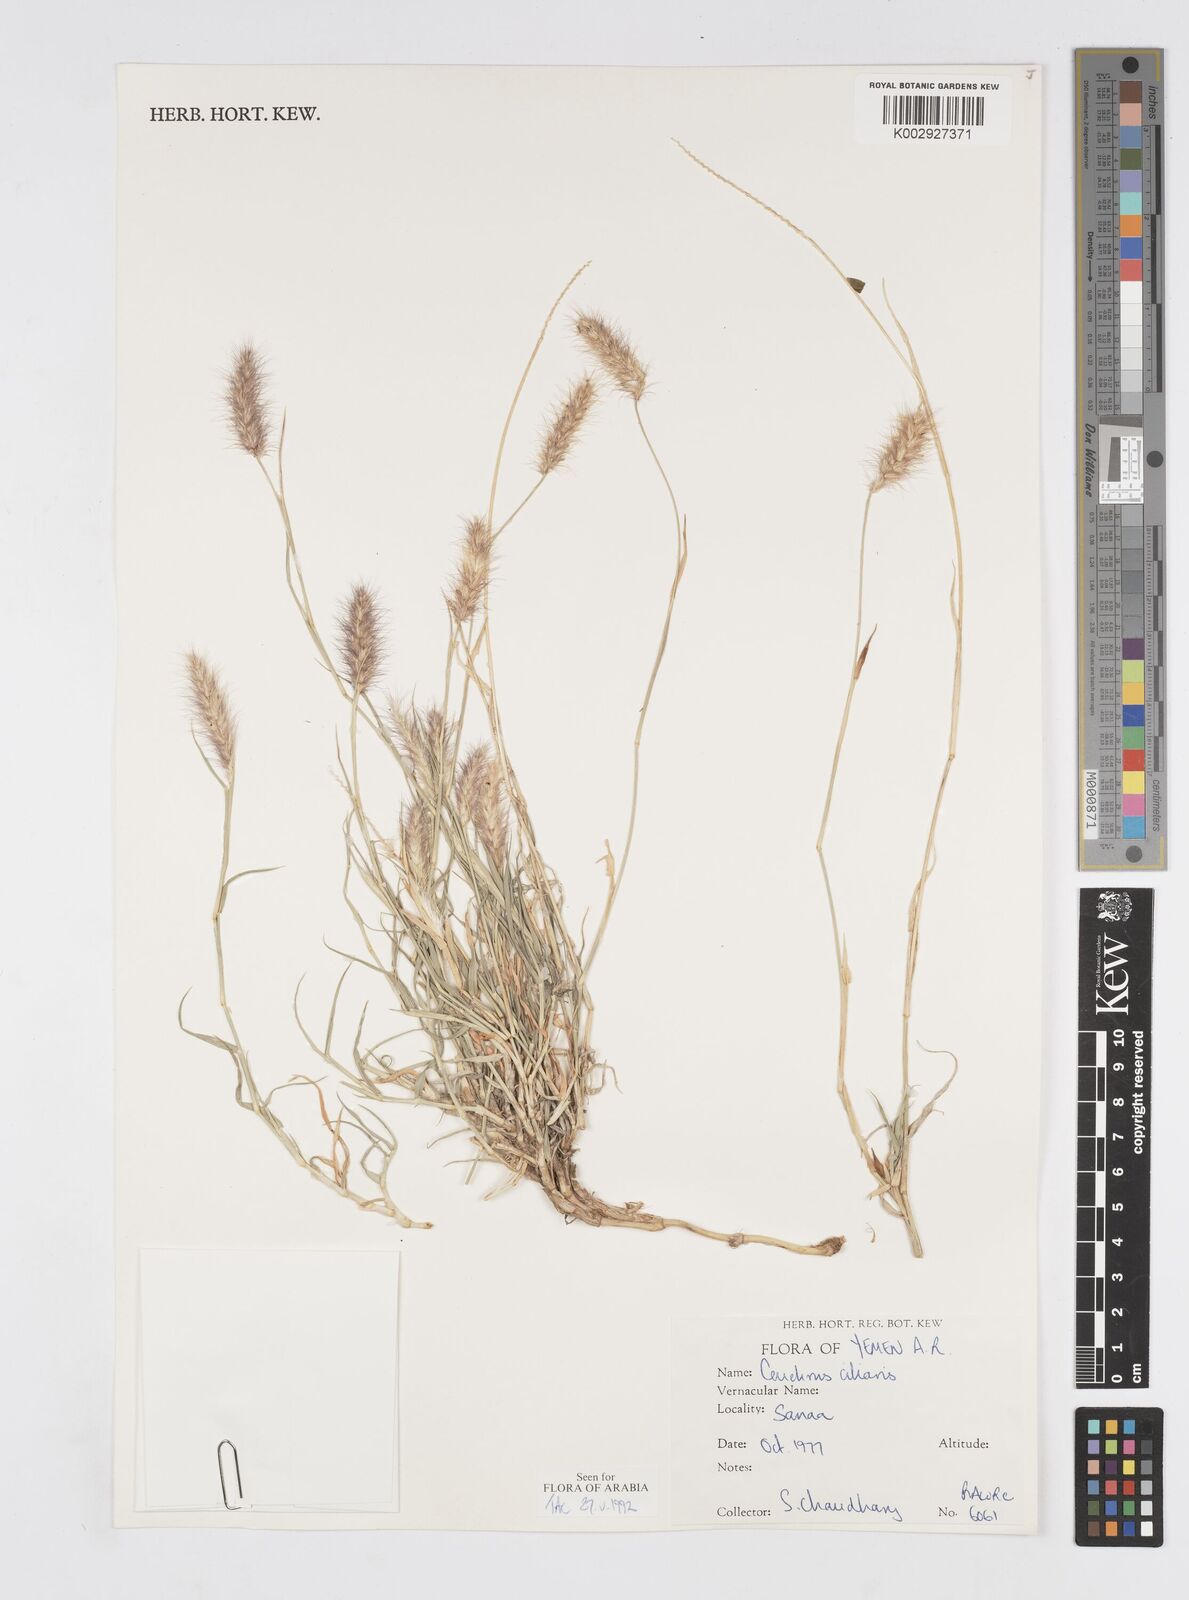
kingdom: Plantae
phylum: Tracheophyta
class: Liliopsida
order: Poales
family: Poaceae
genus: Cenchrus
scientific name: Cenchrus ciliaris
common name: Buffelgrass
